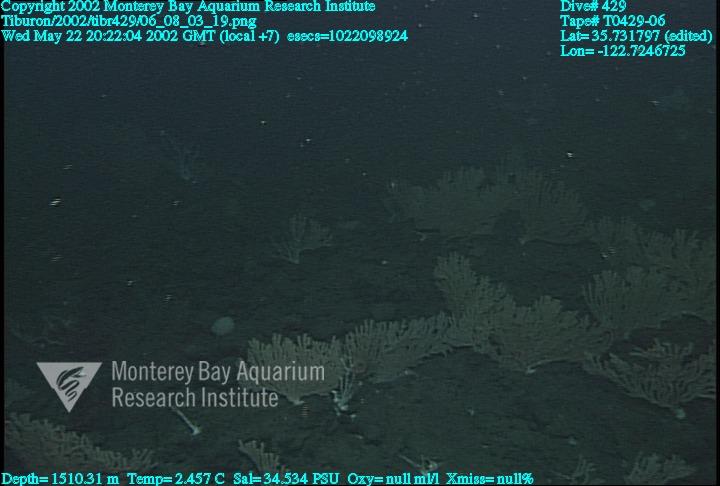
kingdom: Animalia
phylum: Porifera
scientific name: Porifera
